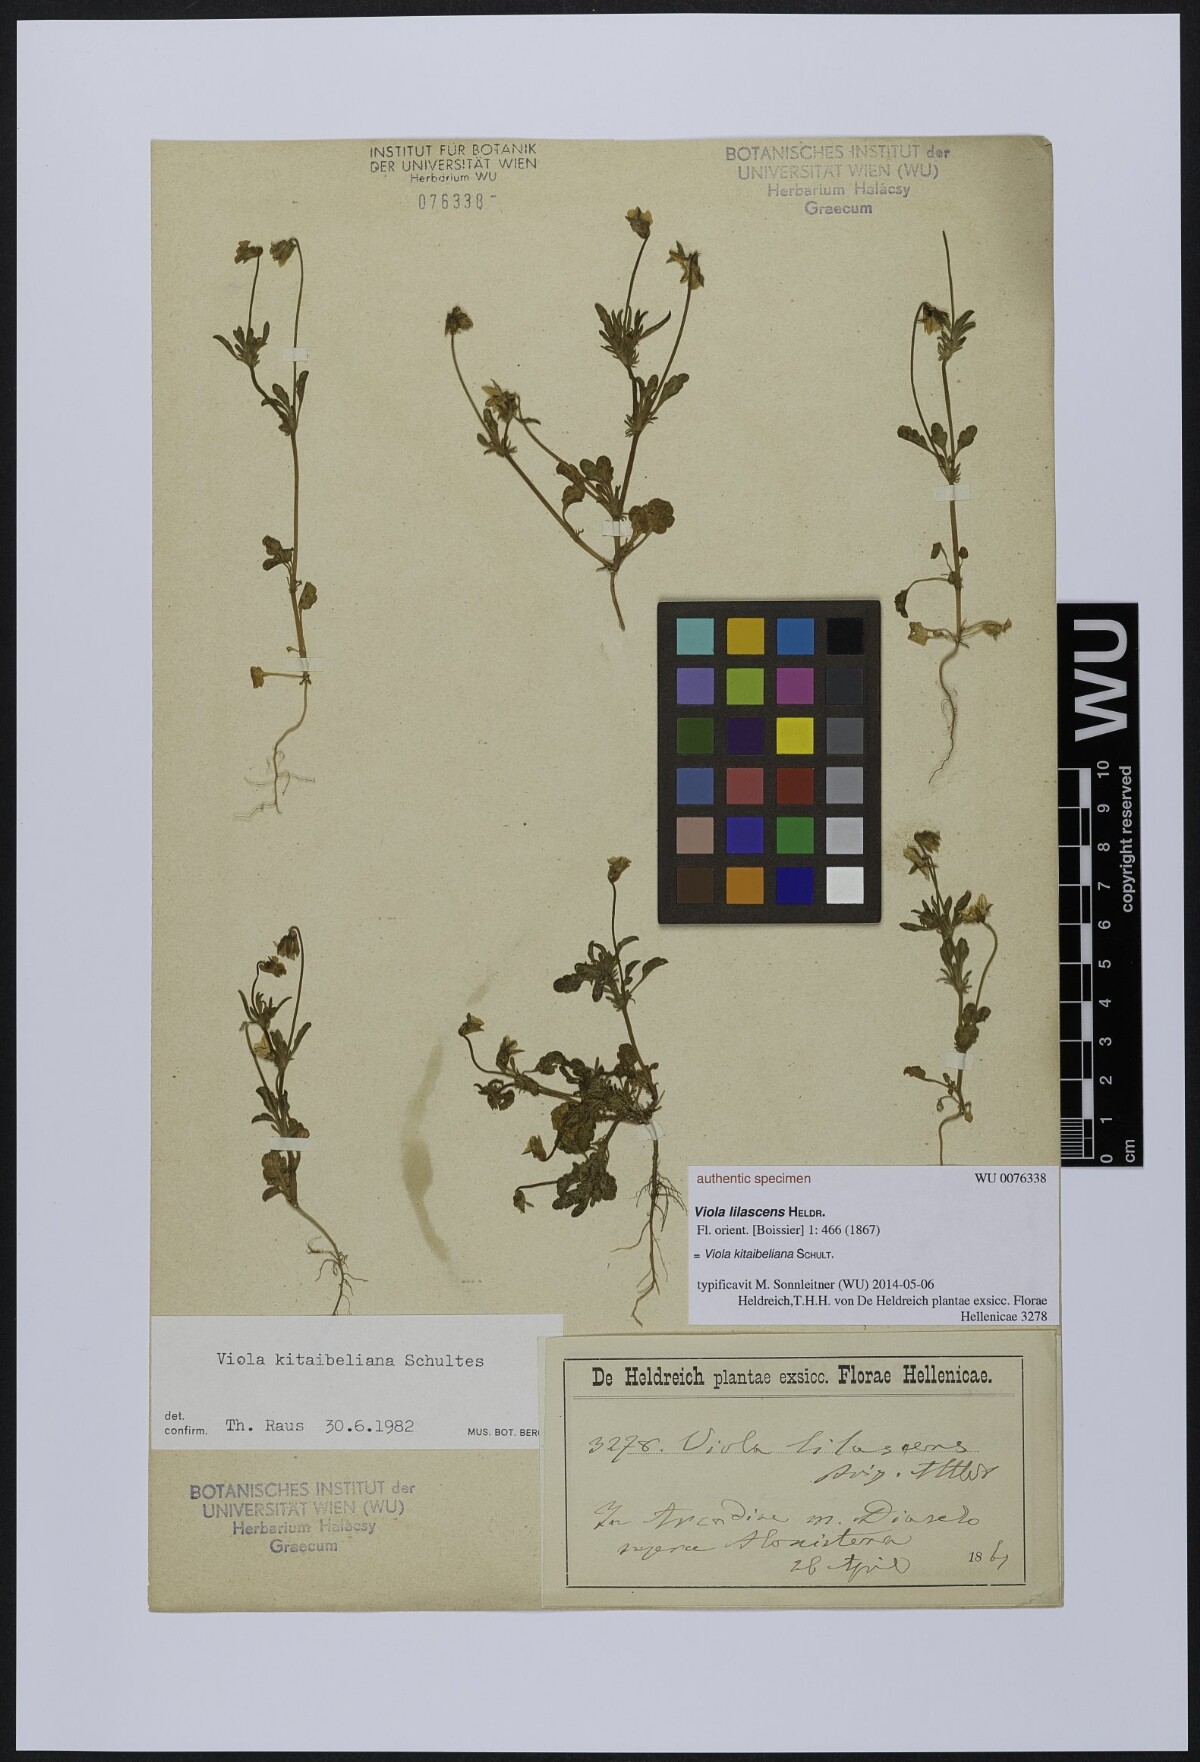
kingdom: Plantae
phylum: Tracheophyta
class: Magnoliopsida
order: Malpighiales
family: Violaceae
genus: Viola
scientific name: Viola tricolor
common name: Pansy
